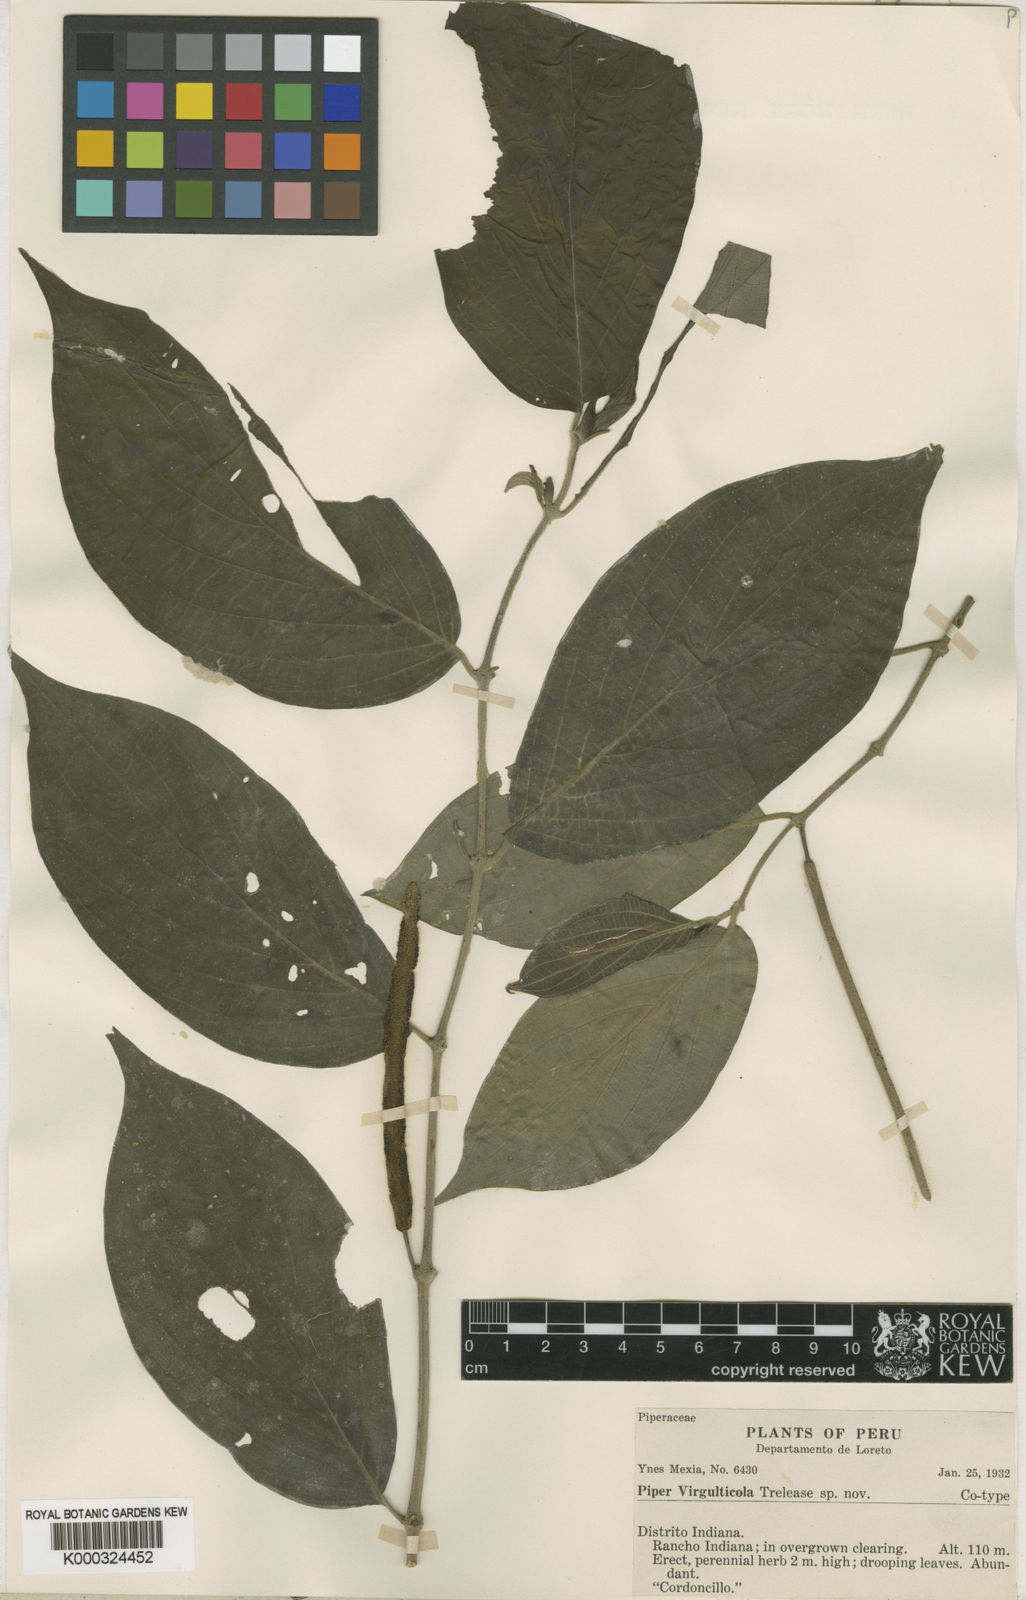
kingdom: Plantae
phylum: Tracheophyta
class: Magnoliopsida
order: Piperales
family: Piperaceae
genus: Piper
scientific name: Piper hispidum
